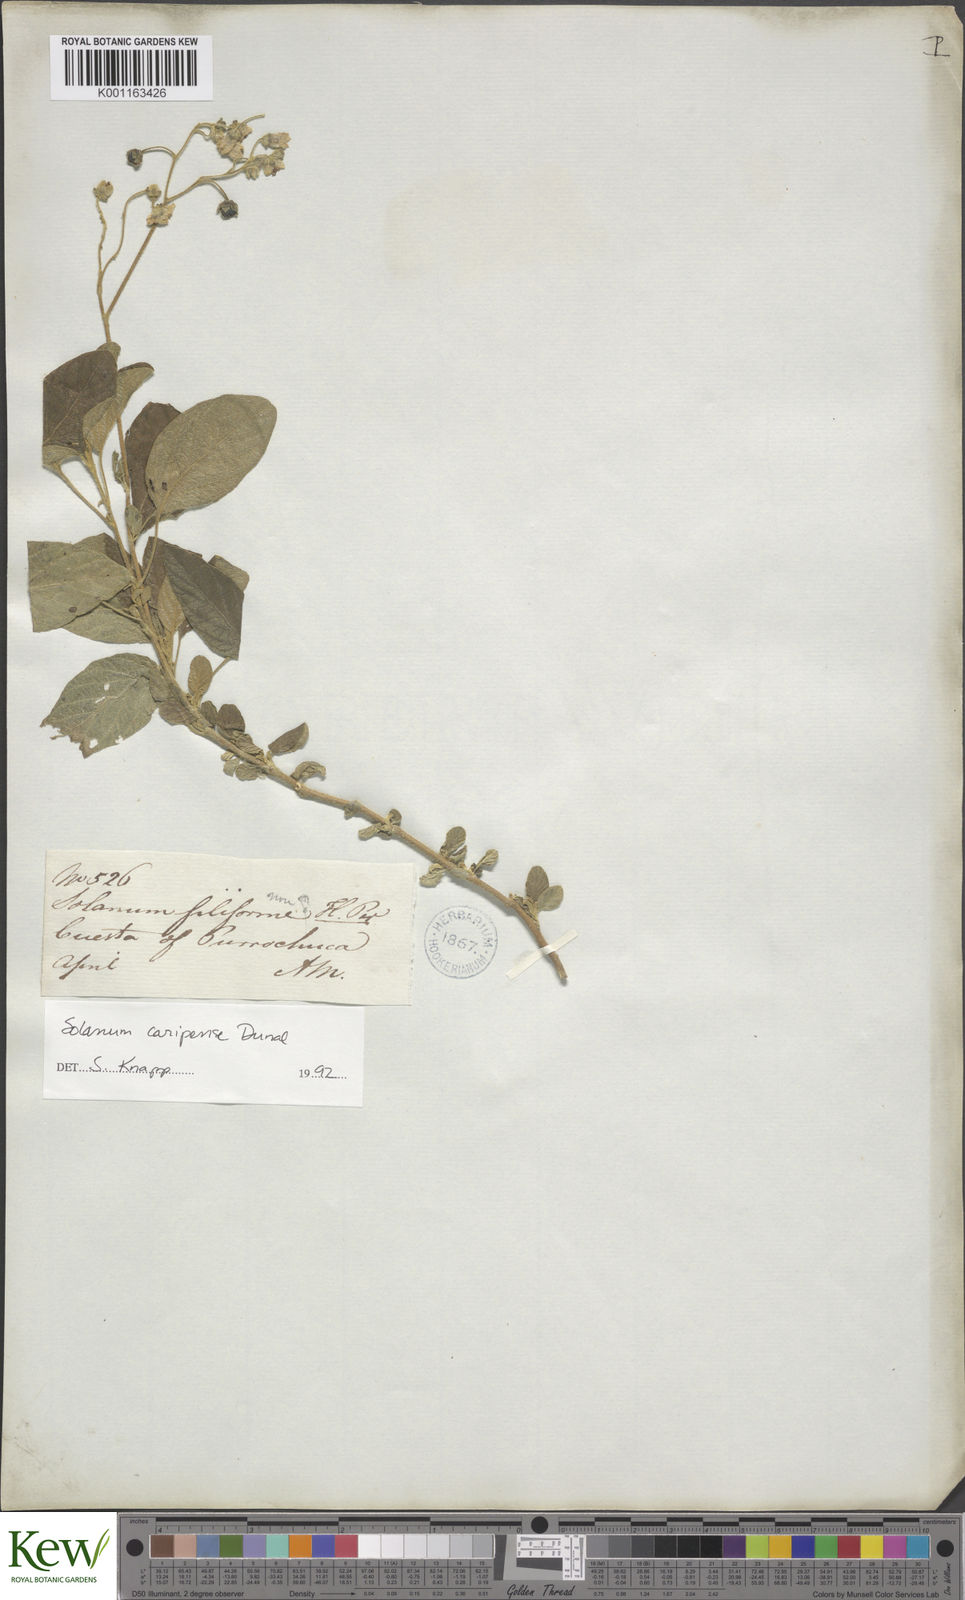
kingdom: Plantae
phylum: Tracheophyta
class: Magnoliopsida
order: Solanales
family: Solanaceae
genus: Solanum
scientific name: Solanum caripense
